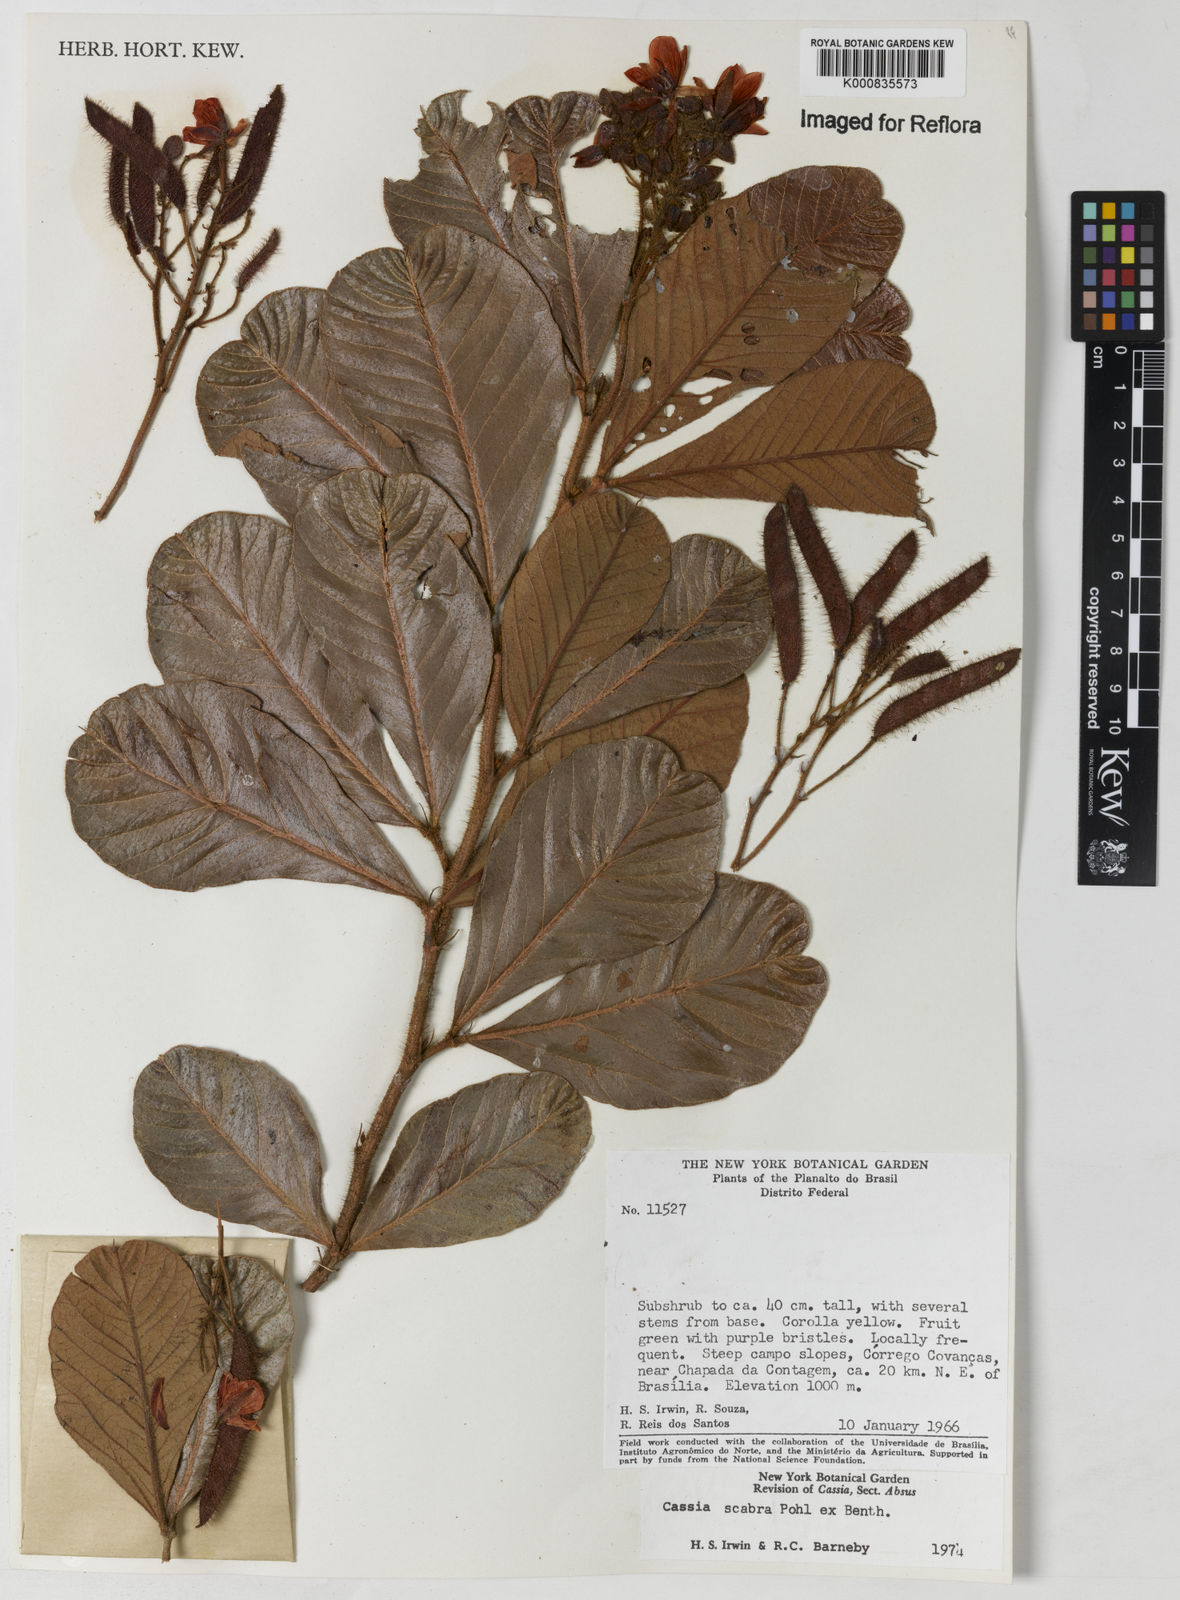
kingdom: Plantae
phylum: Tracheophyta
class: Magnoliopsida
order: Fabales
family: Fabaceae
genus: Chamaecrista
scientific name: Chamaecrista scabra
